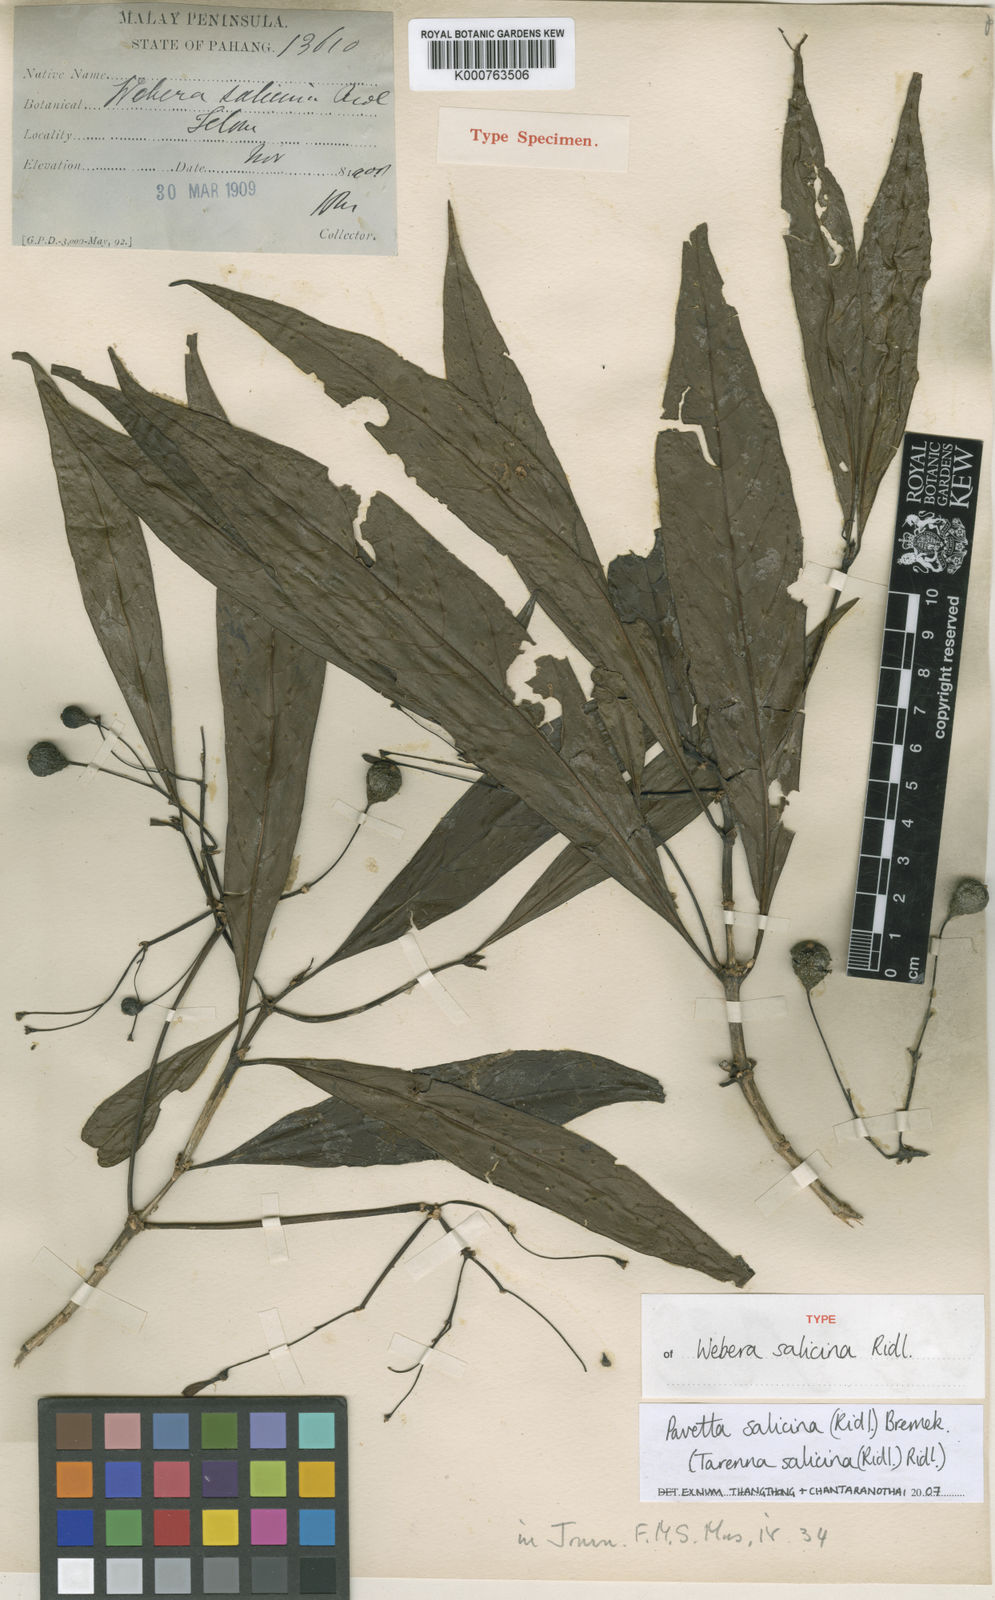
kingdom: Plantae
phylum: Tracheophyta
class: Magnoliopsida
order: Gentianales
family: Rubiaceae
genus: Pavetta
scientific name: Pavetta salicina
